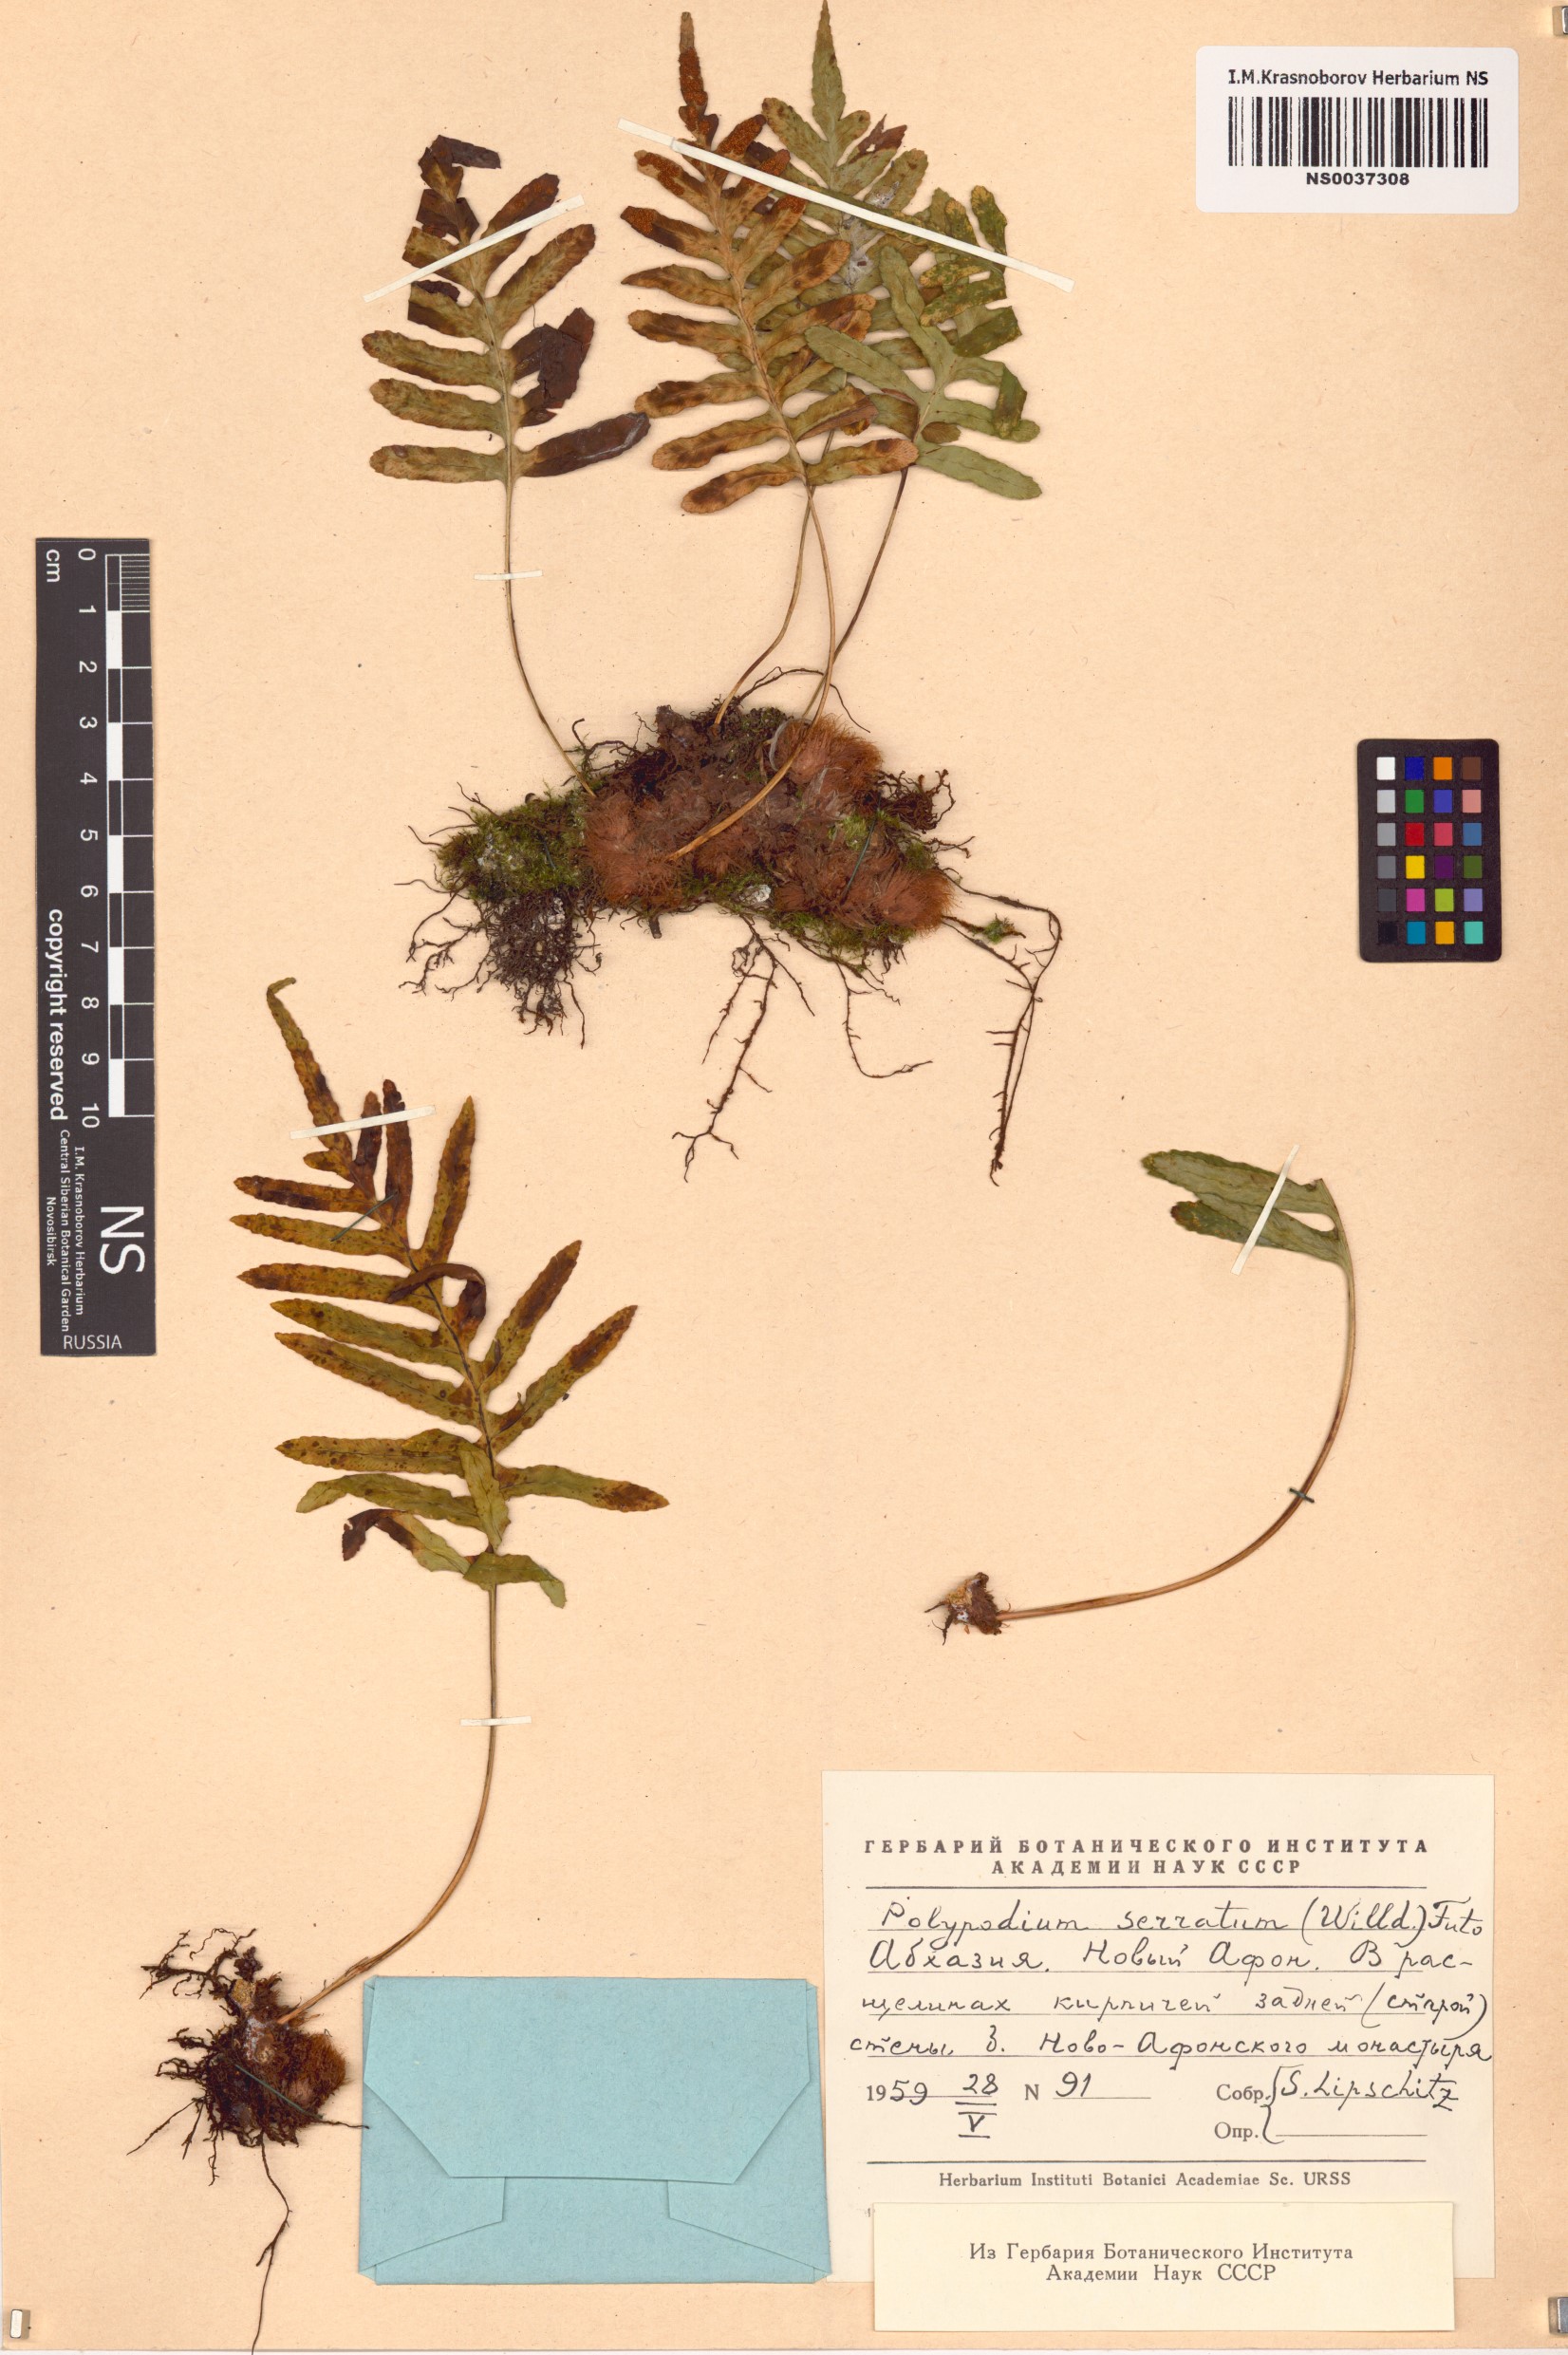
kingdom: Plantae
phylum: Tracheophyta
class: Polypodiopsida
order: Polypodiales
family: Polypodiaceae
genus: Polypodium
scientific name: Polypodium cambricum
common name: Southern polypody
